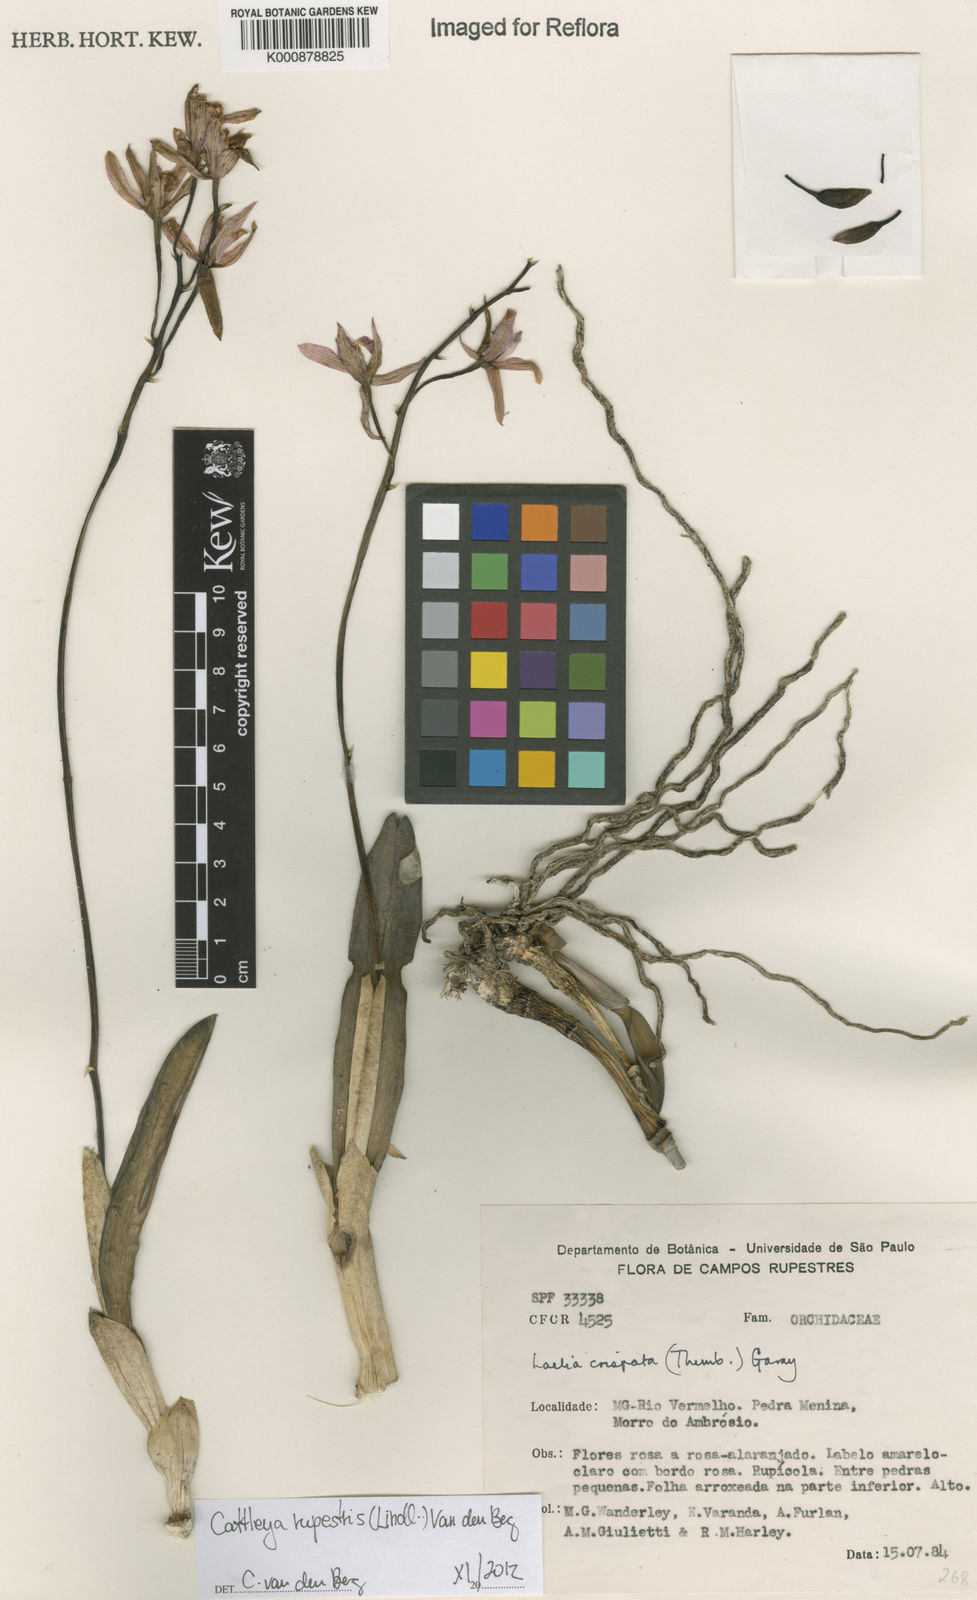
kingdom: Plantae
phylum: Tracheophyta
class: Liliopsida
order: Asparagales
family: Orchidaceae
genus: Cattleya
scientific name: Cattleya rupestris
